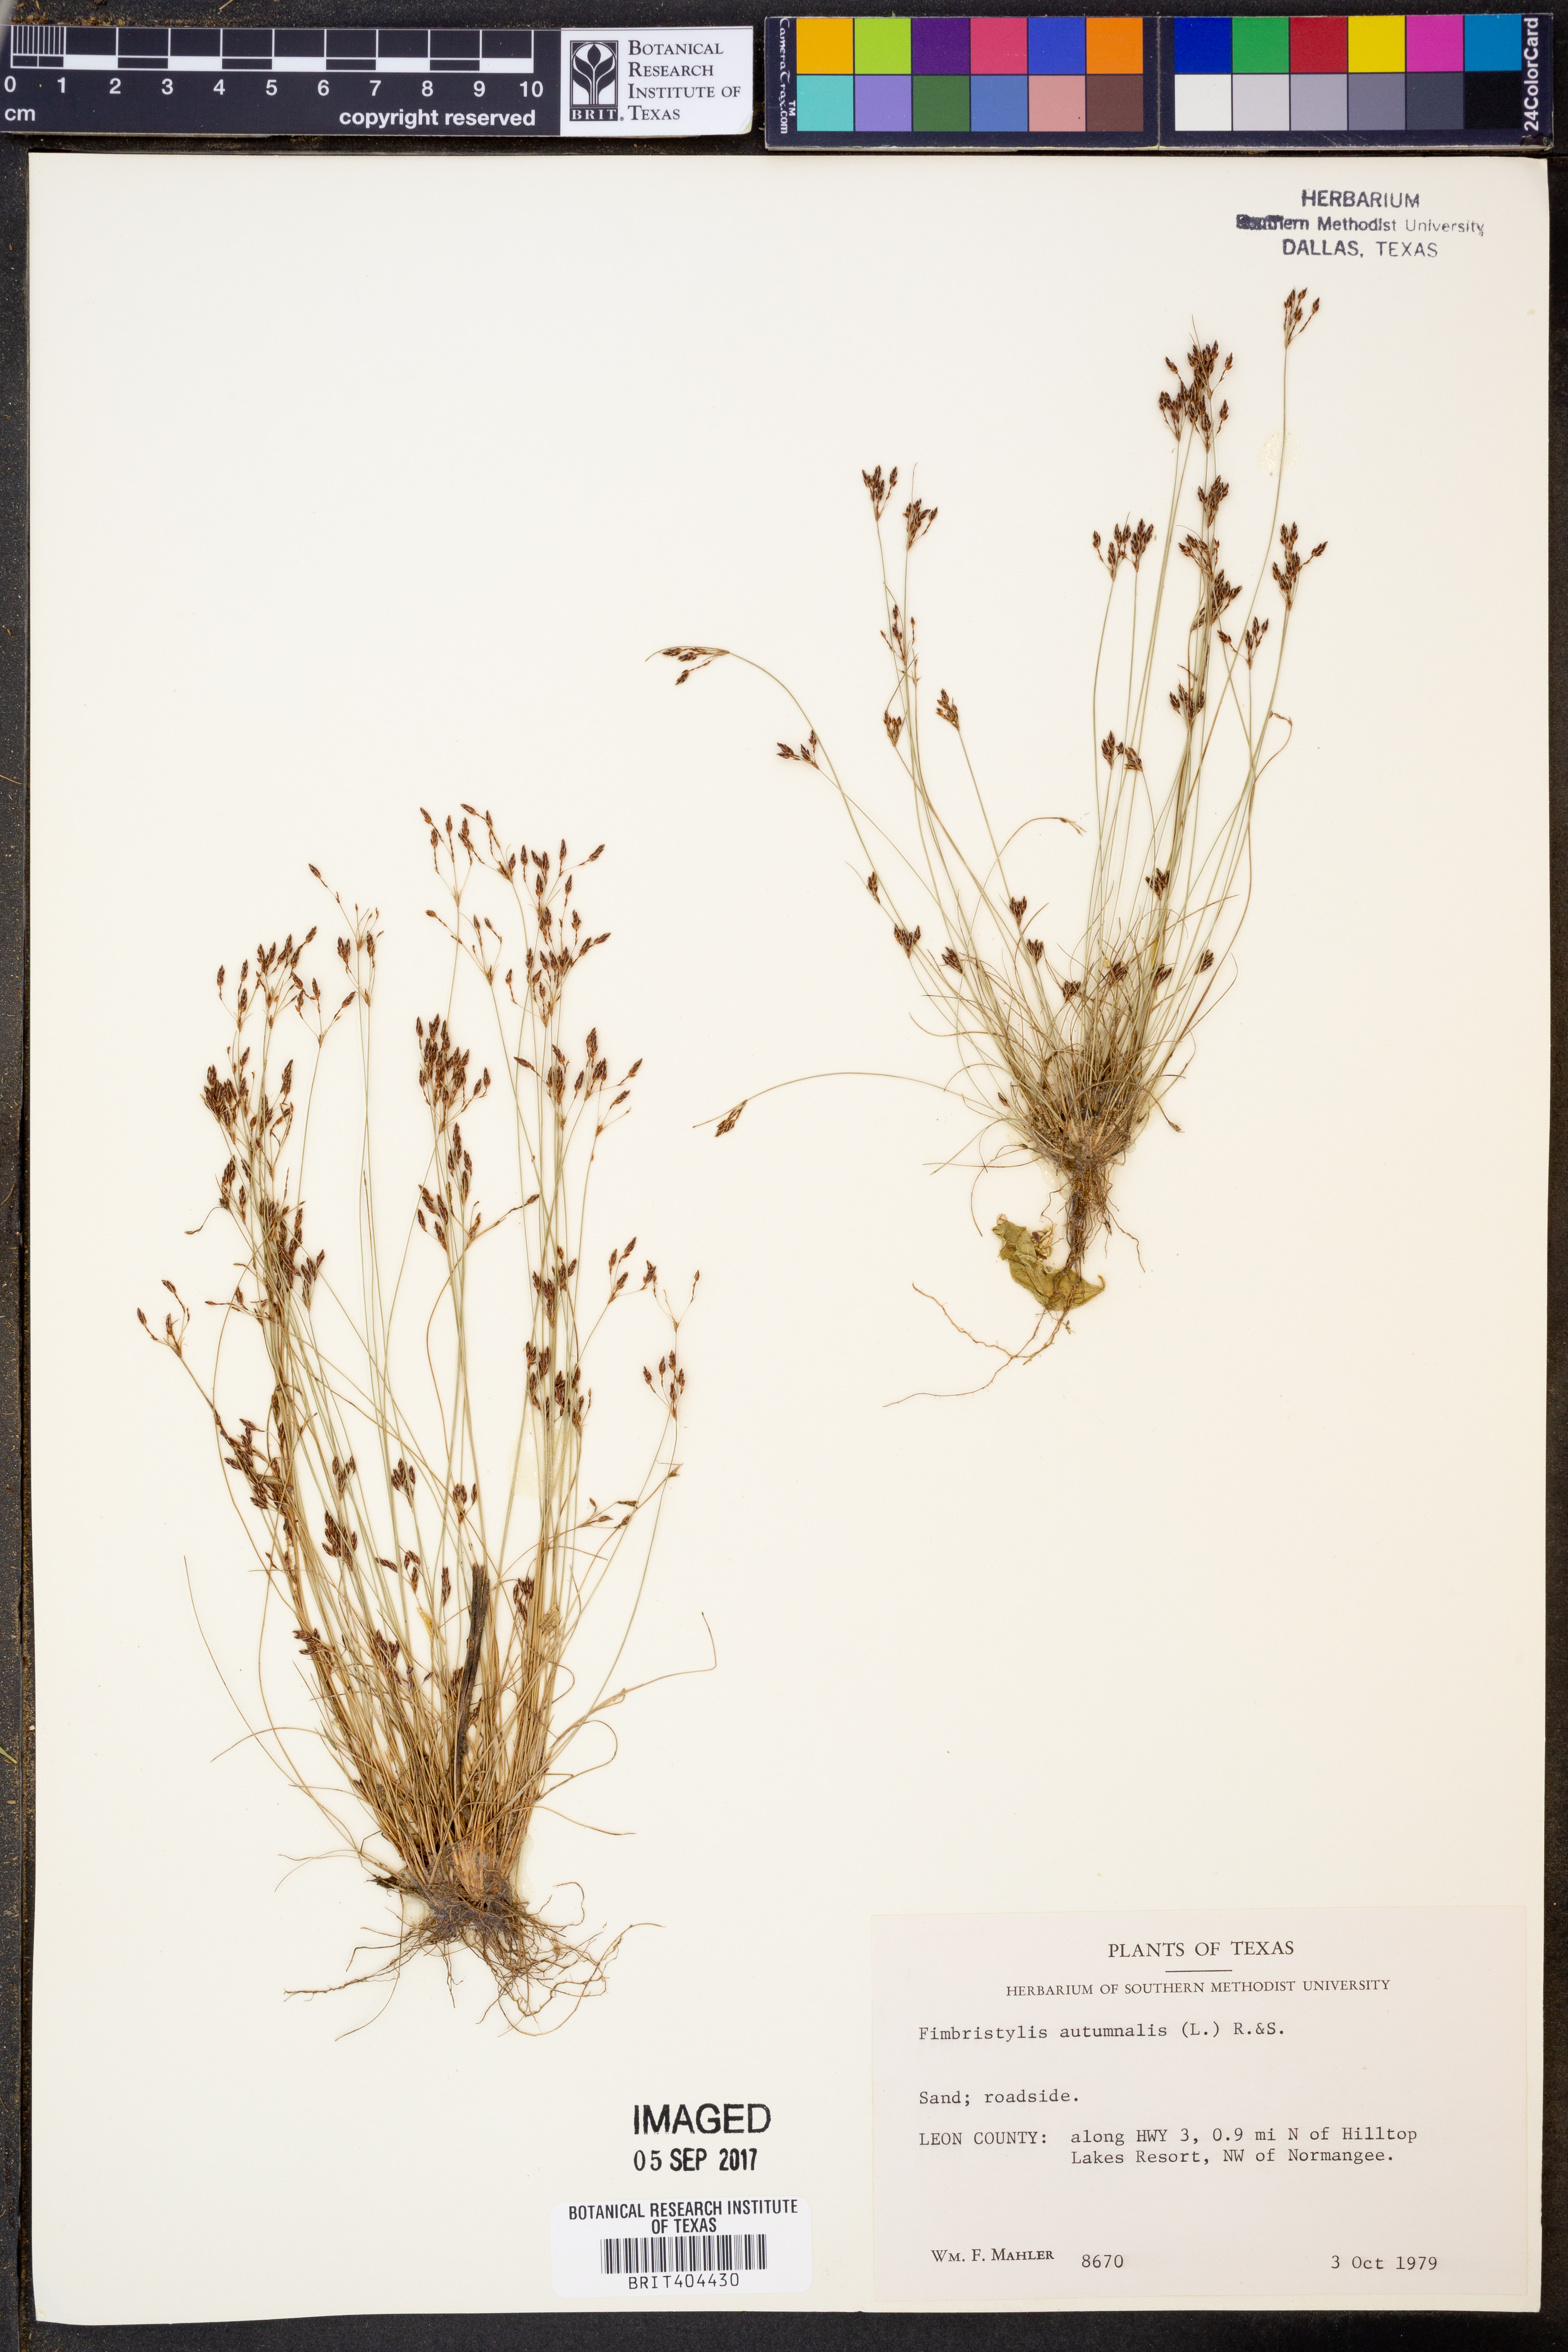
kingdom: Plantae
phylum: Tracheophyta
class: Liliopsida
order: Poales
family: Cyperaceae
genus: Fimbristylis
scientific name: Fimbristylis autumnalis
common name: Slender fimbristylis
